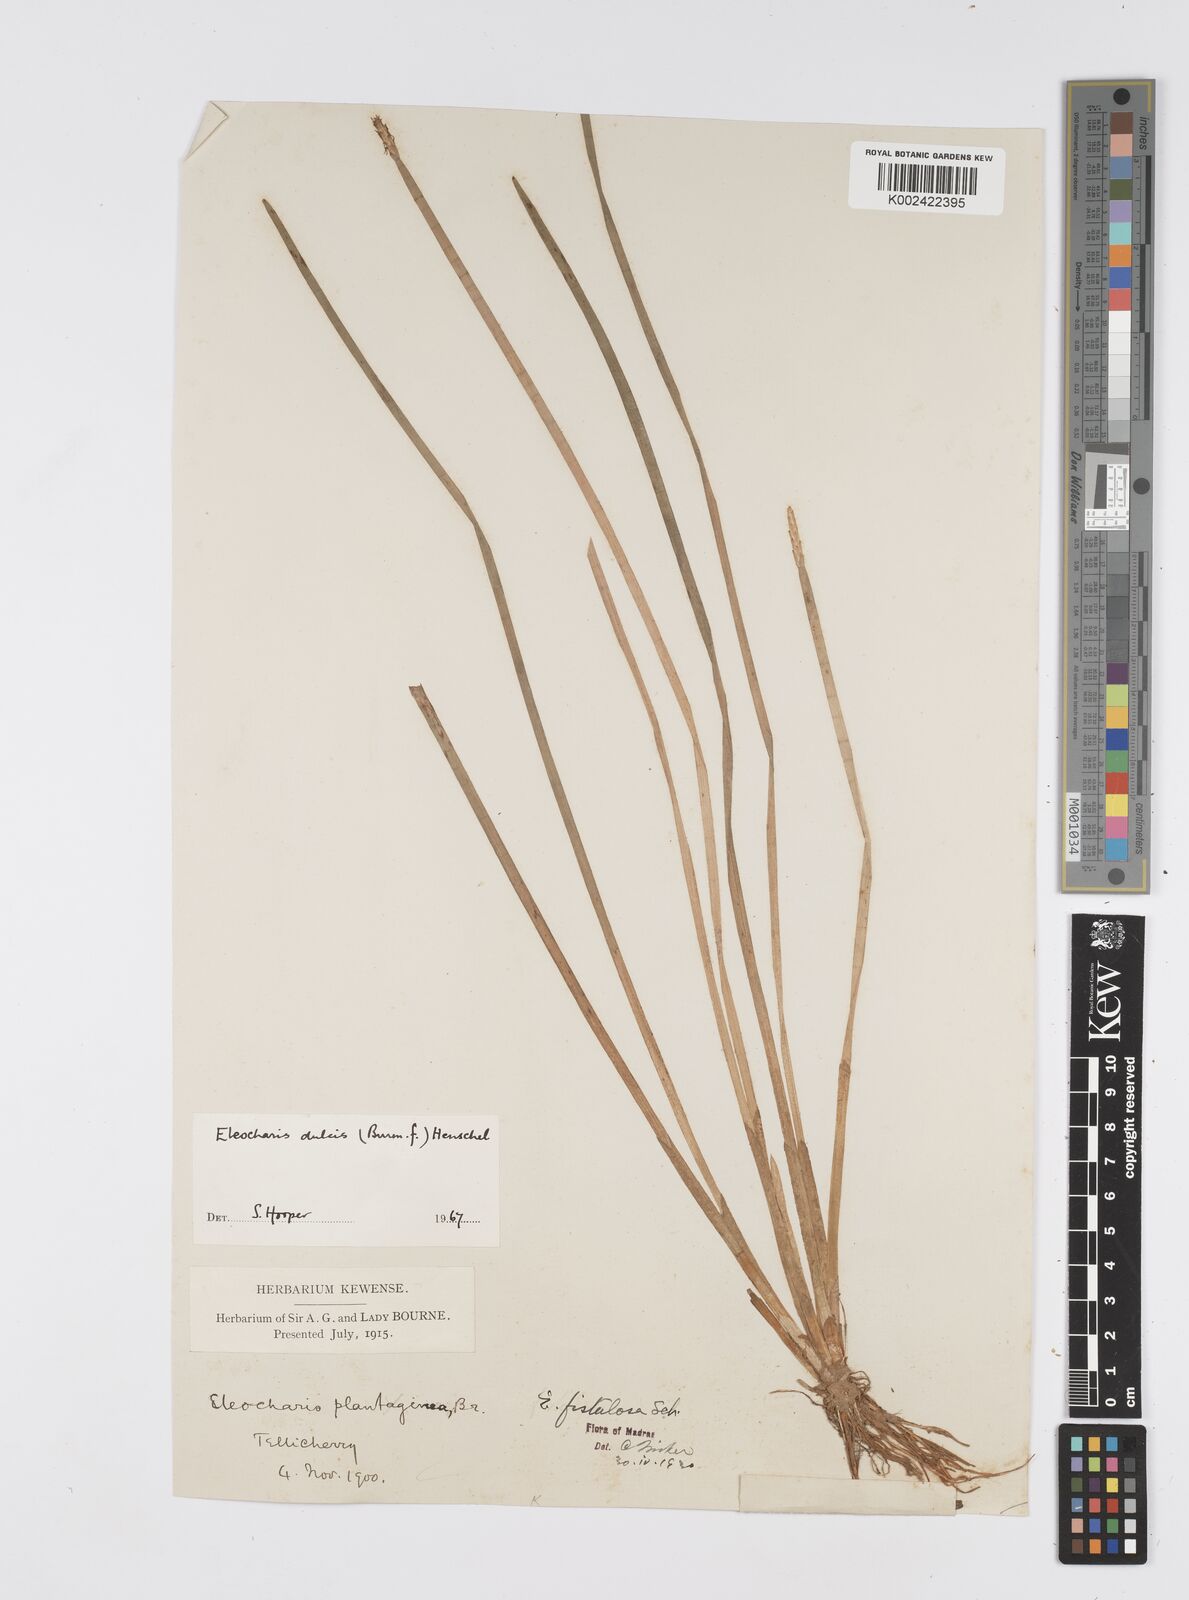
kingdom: Plantae
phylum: Tracheophyta
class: Liliopsida
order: Poales
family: Cyperaceae
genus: Eleocharis
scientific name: Eleocharis dulcis
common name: Chinese water chestnut
